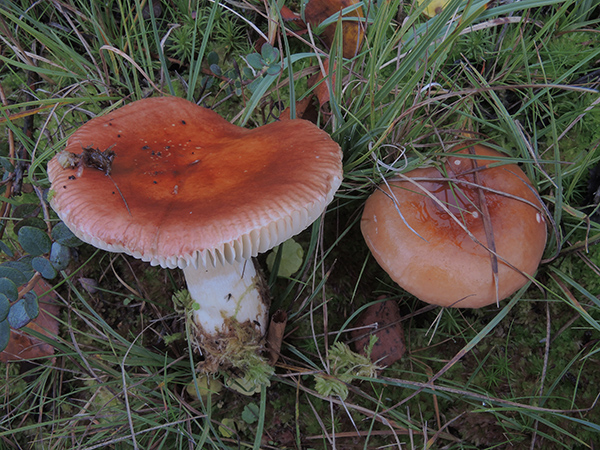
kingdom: Fungi
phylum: Basidiomycota
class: Agaricomycetes
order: Russulales
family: Russulaceae
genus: Russula
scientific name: Russula subrubens
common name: pile-skørhat
